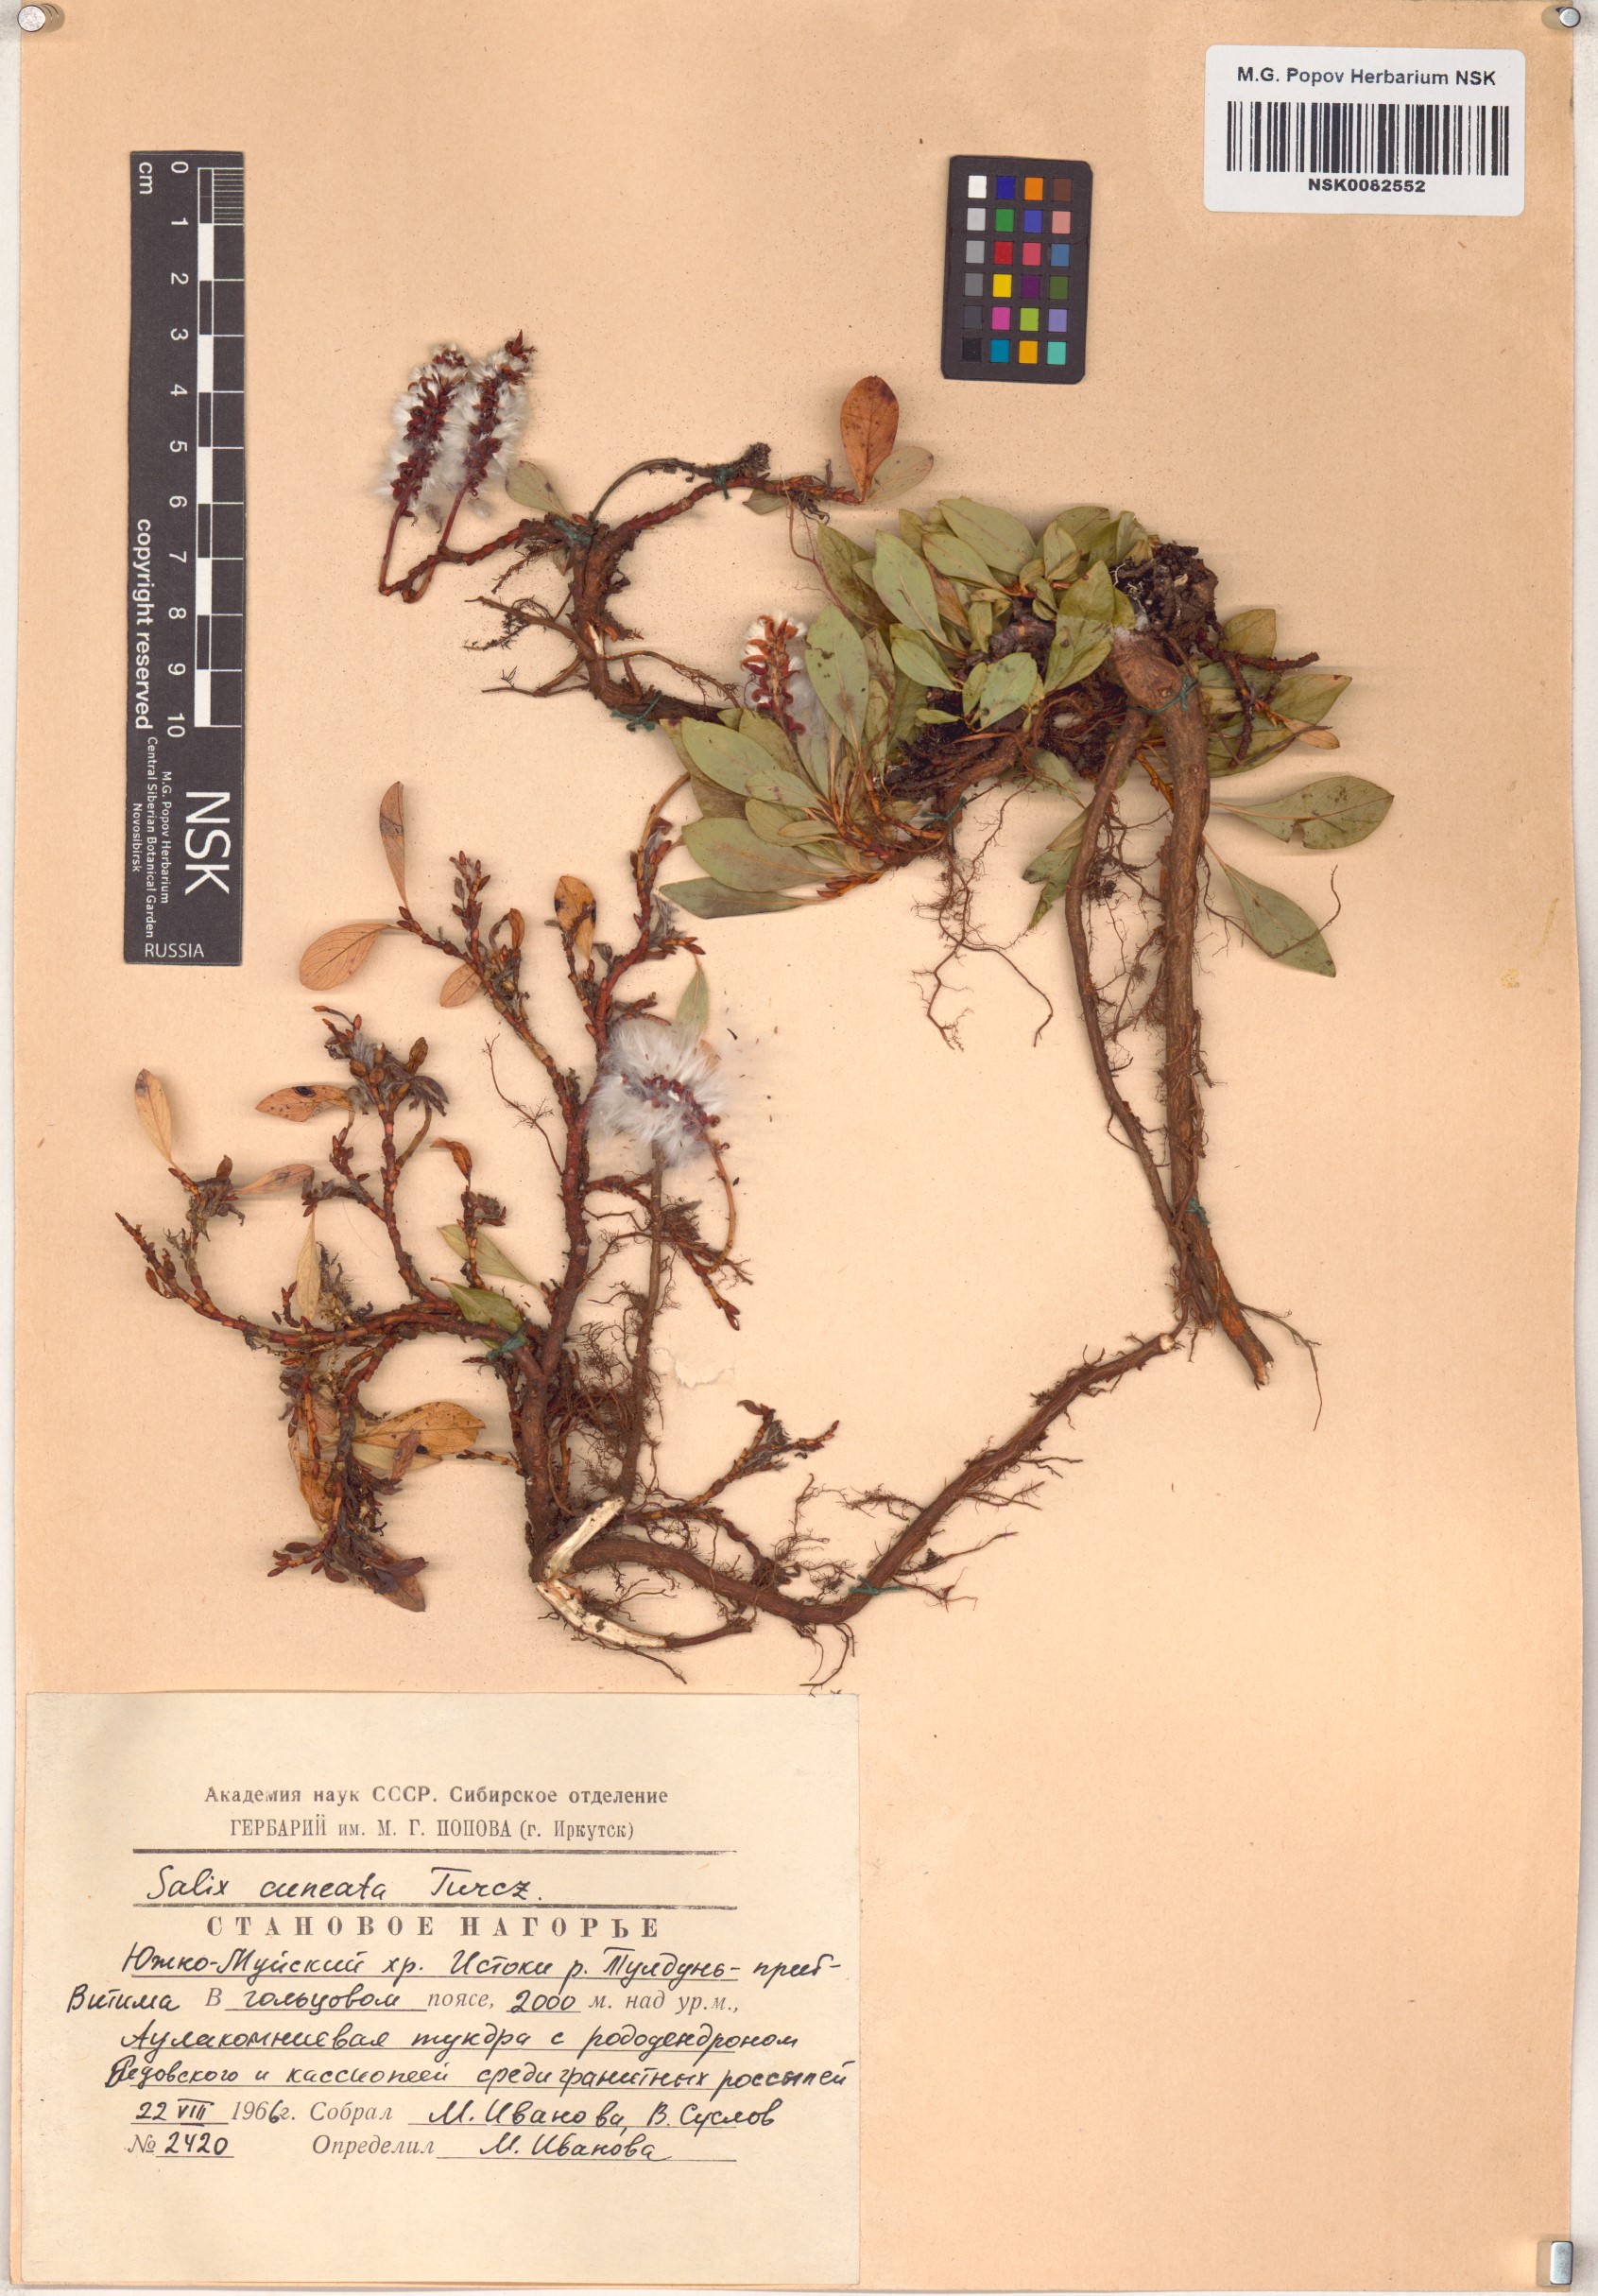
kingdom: Plantae
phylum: Tracheophyta
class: Magnoliopsida
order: Malpighiales
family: Salicaceae
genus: Salix
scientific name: Salix sphenophylla
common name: Wedge-leaved willow
